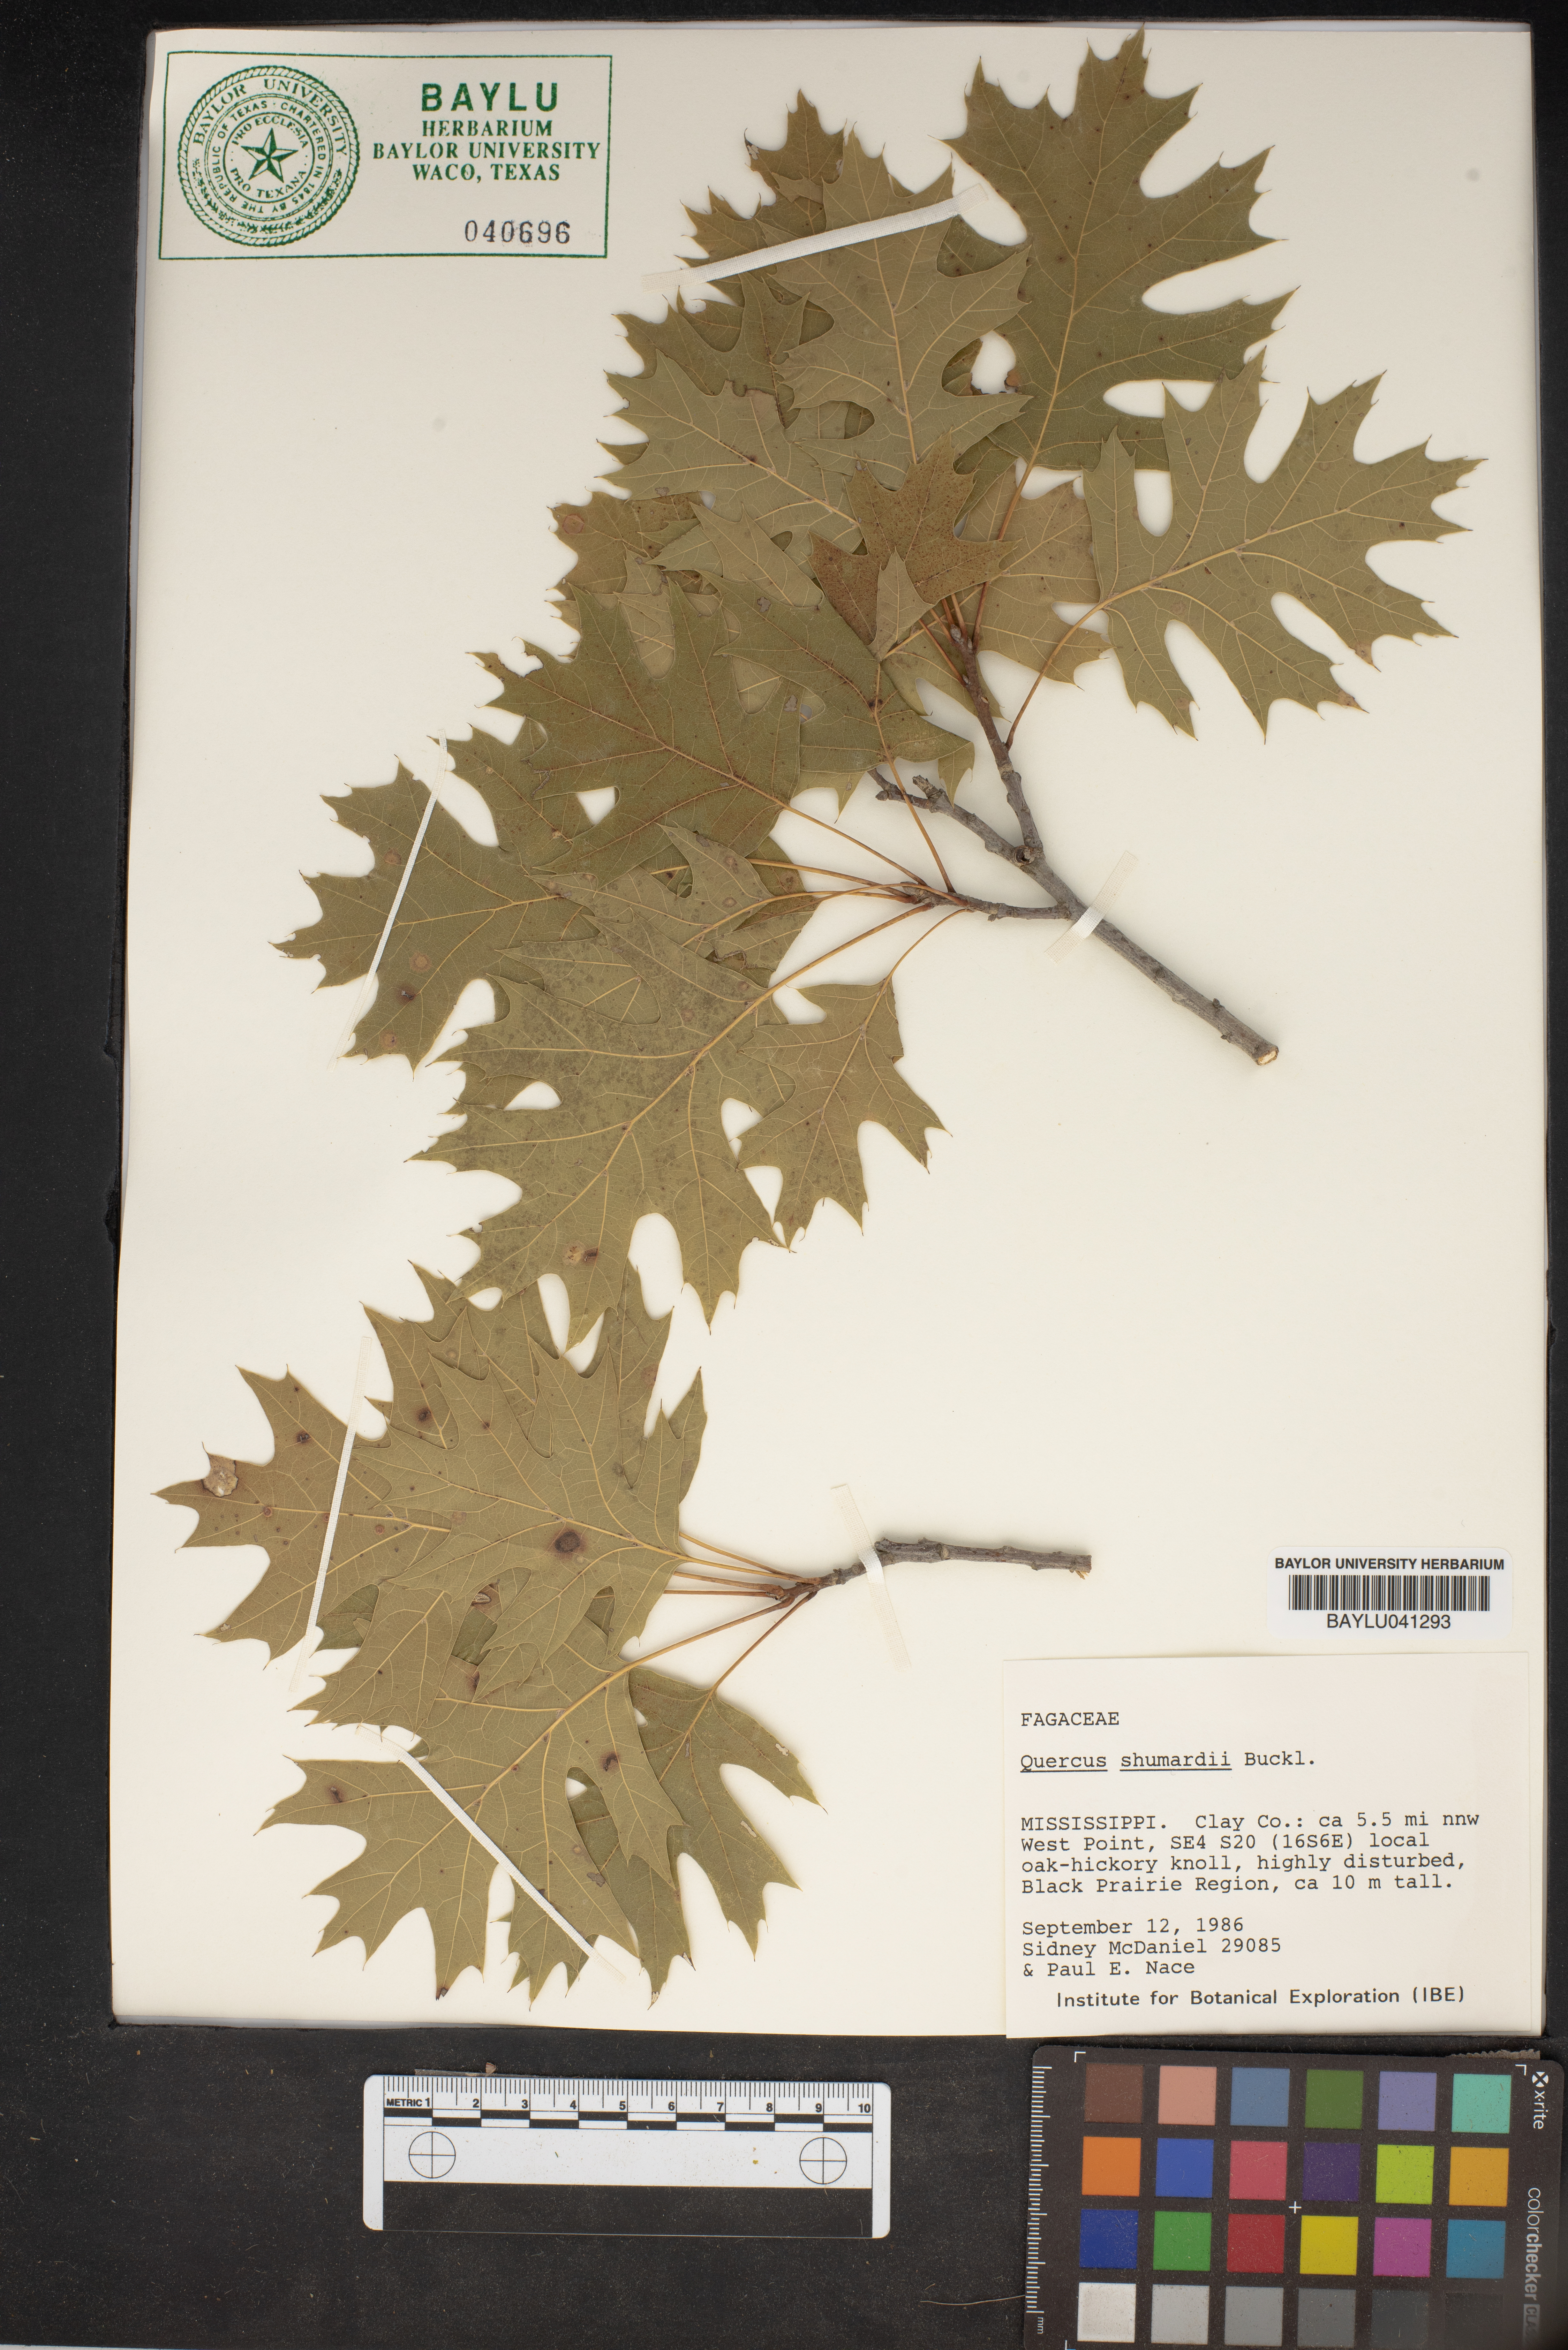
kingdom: Plantae
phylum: Tracheophyta
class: Magnoliopsida
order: Fagales
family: Fagaceae
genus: Quercus
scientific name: Quercus shumardii
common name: Shumard oak
